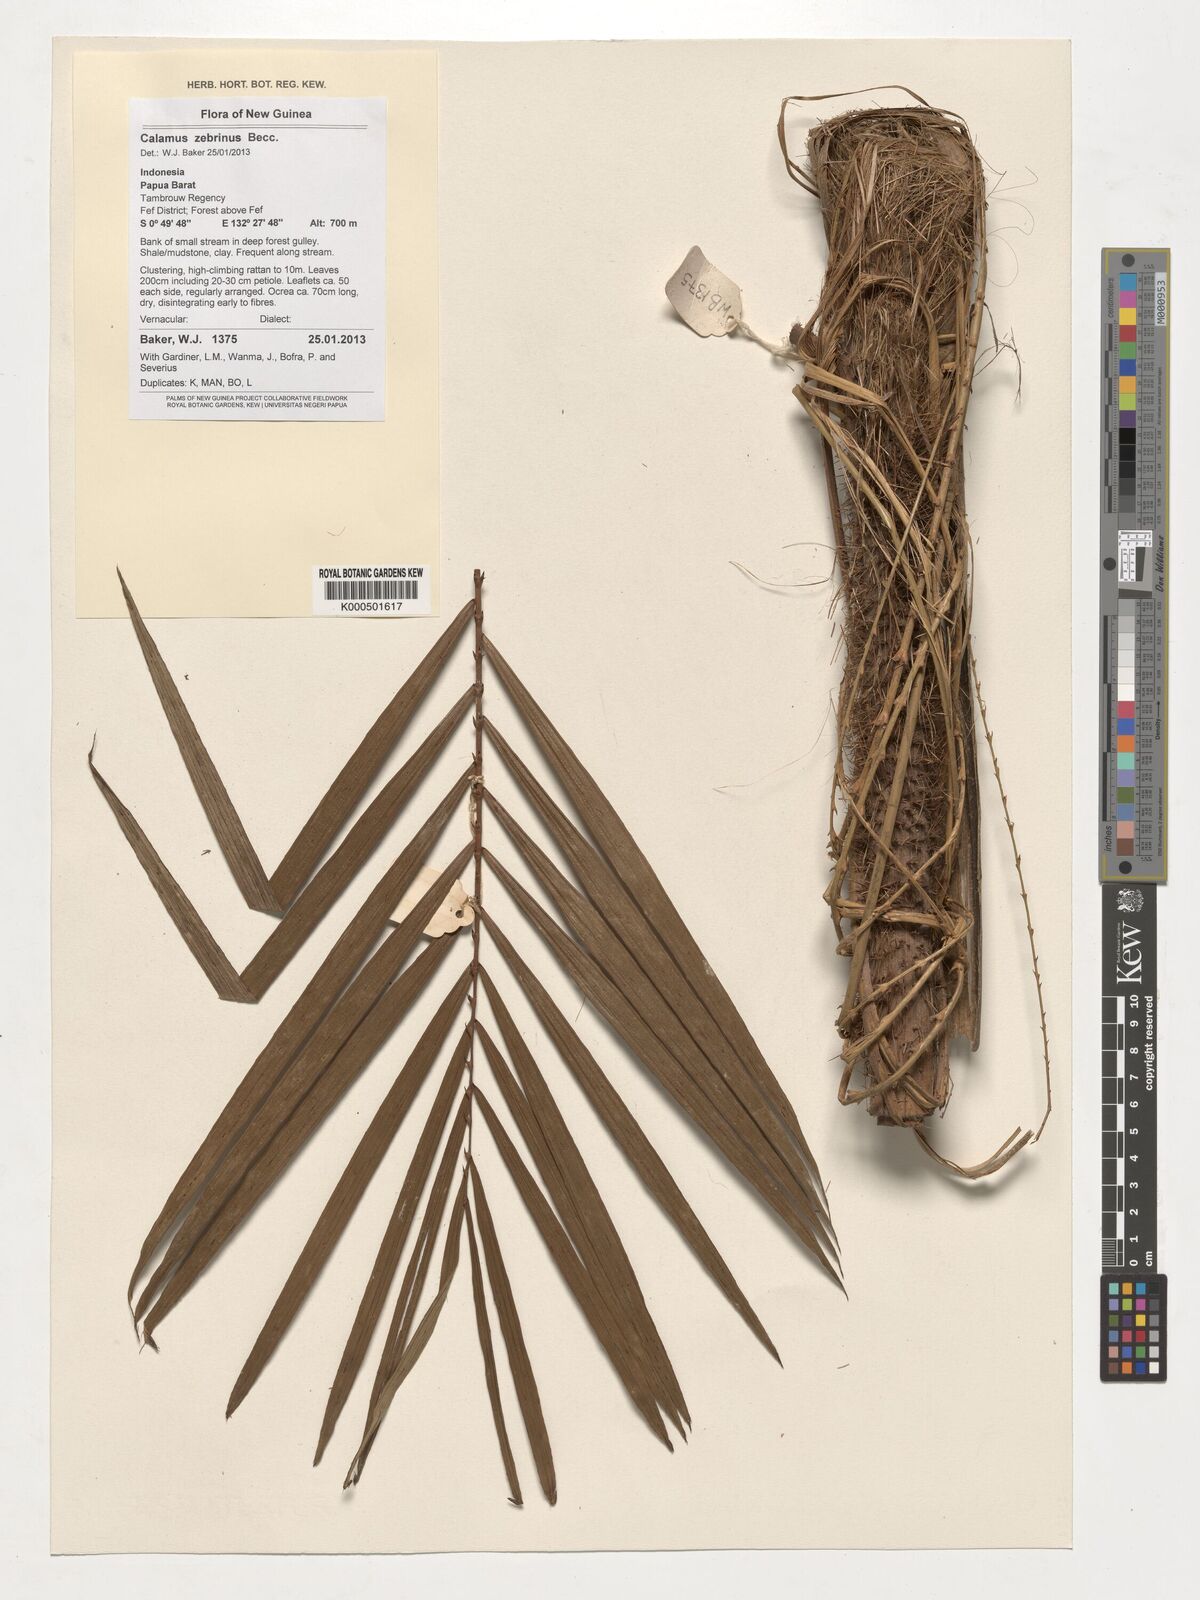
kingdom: Plantae
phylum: Tracheophyta
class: Liliopsida
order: Arecales
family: Arecaceae
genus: Calamus
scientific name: Calamus zebrinus
